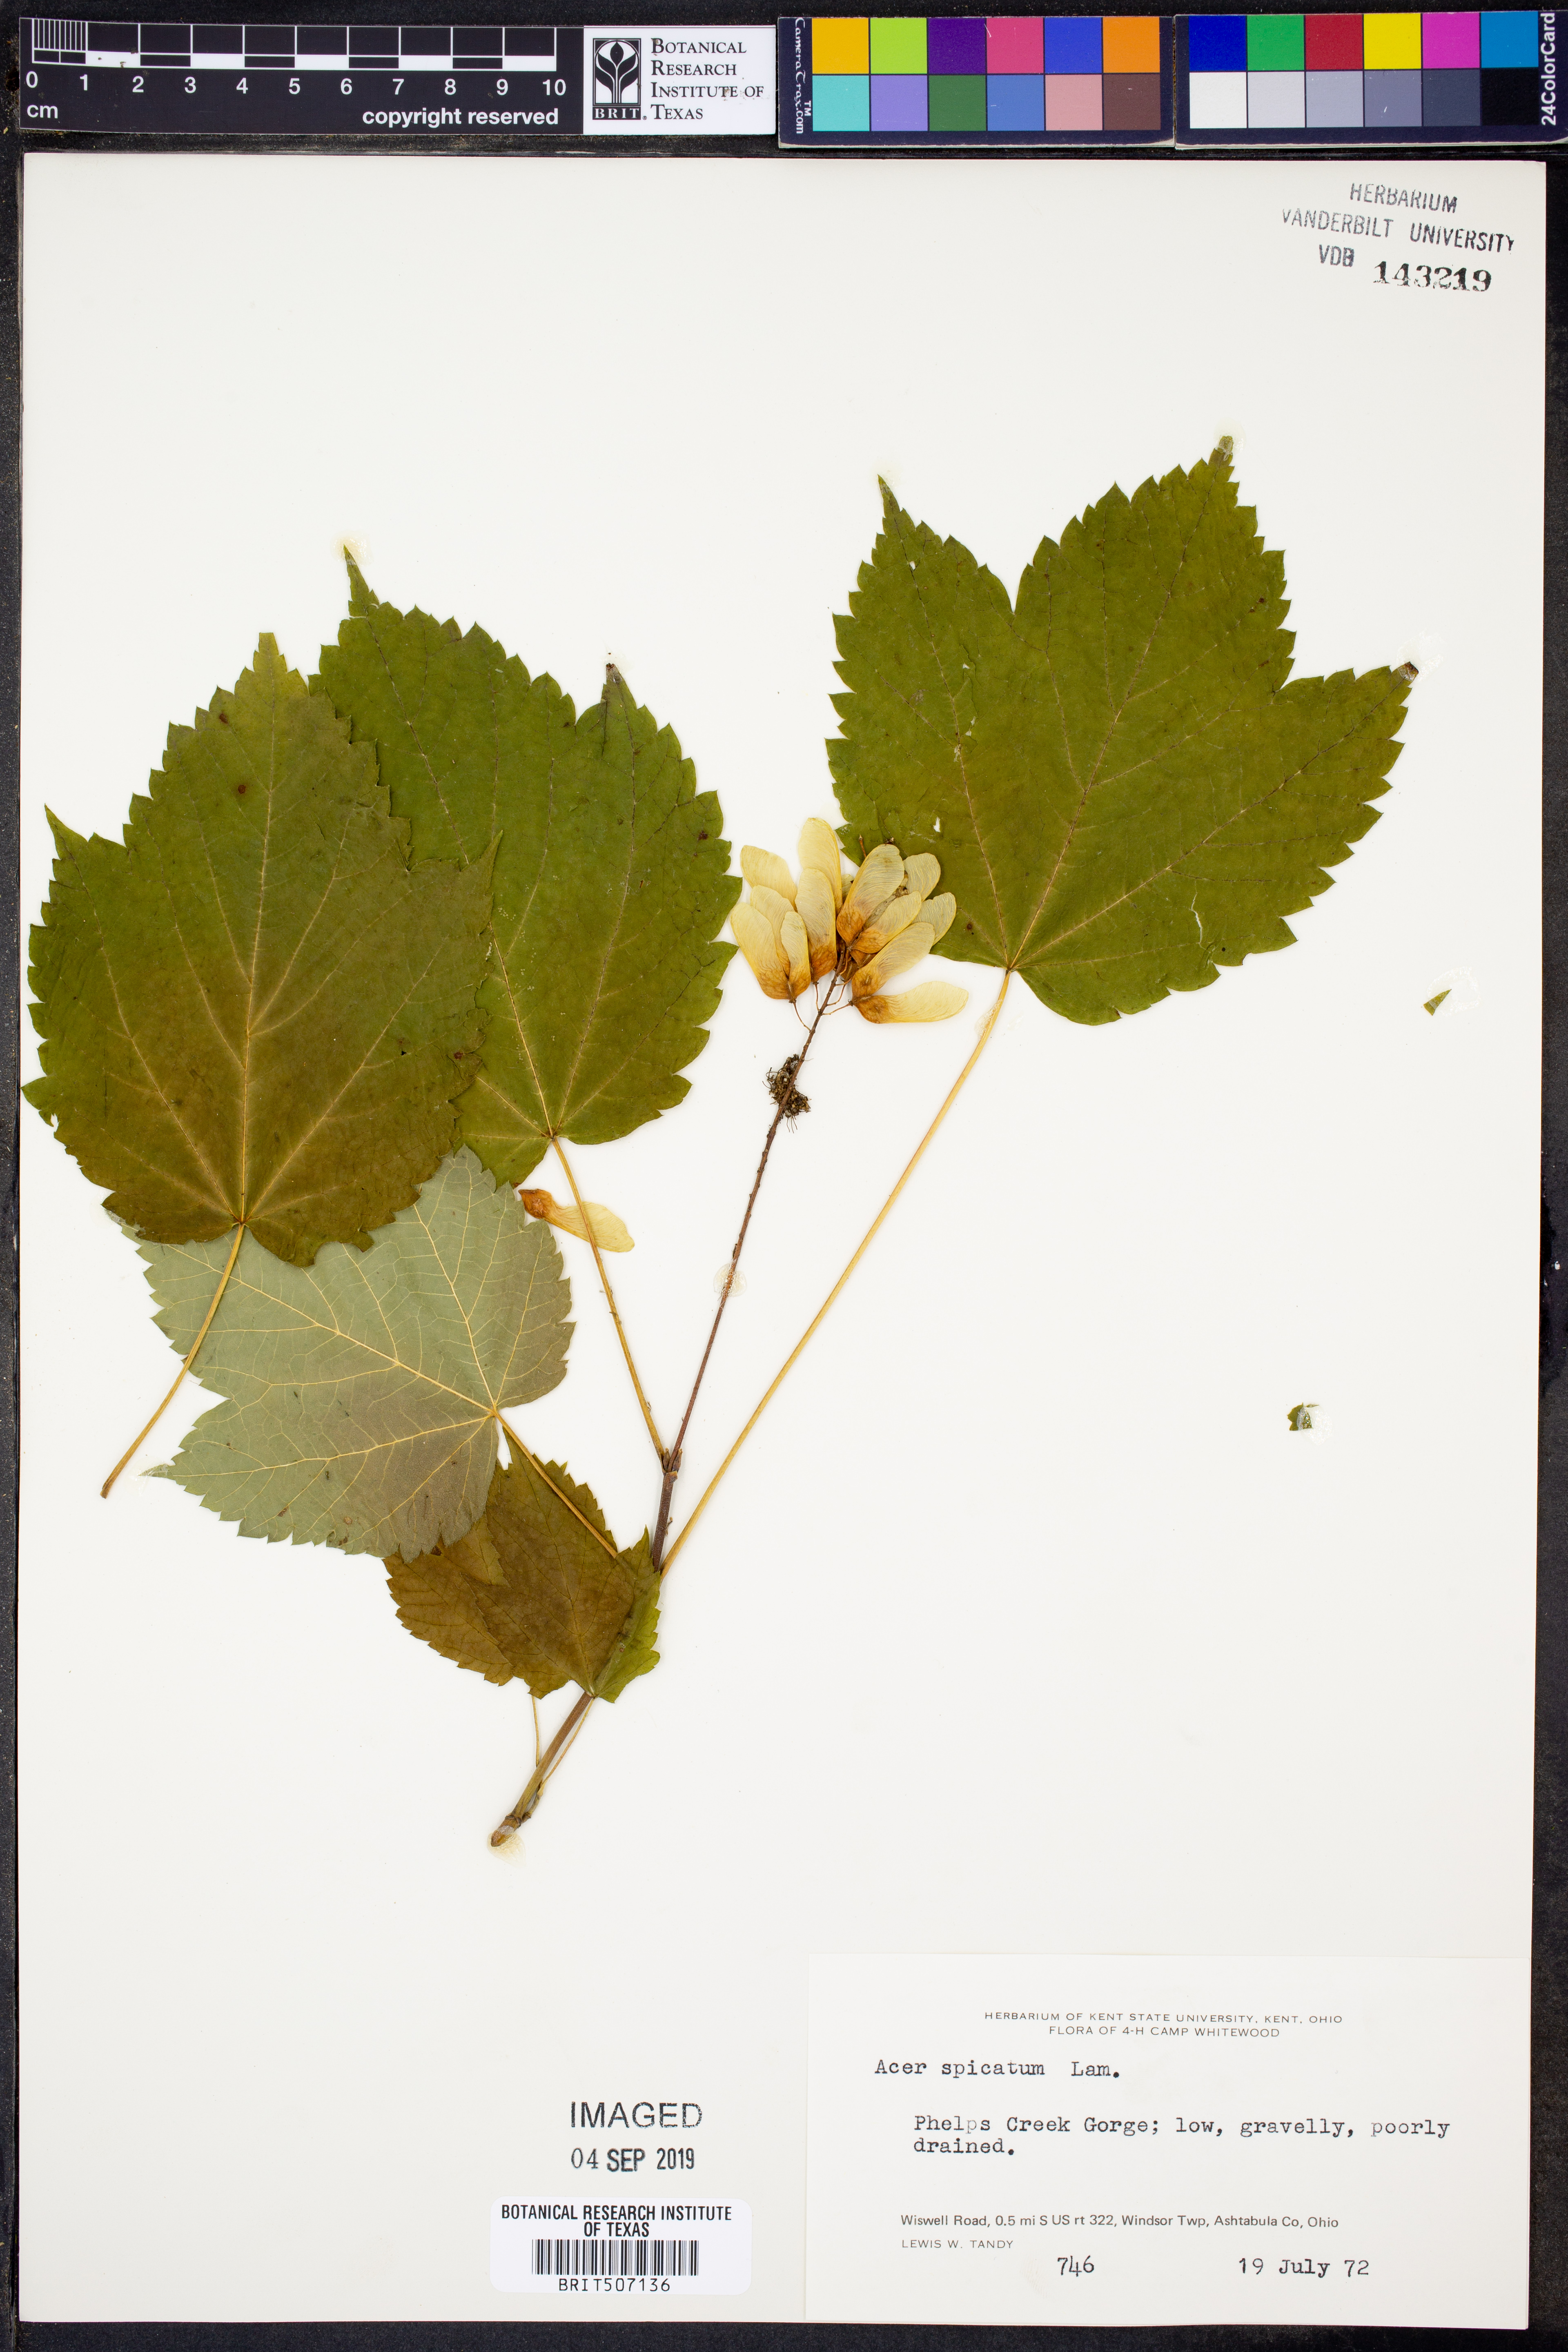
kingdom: Plantae
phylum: Tracheophyta
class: Magnoliopsida
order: Sapindales
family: Sapindaceae
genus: Acer
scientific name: Acer spicatum
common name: Mountain maple
